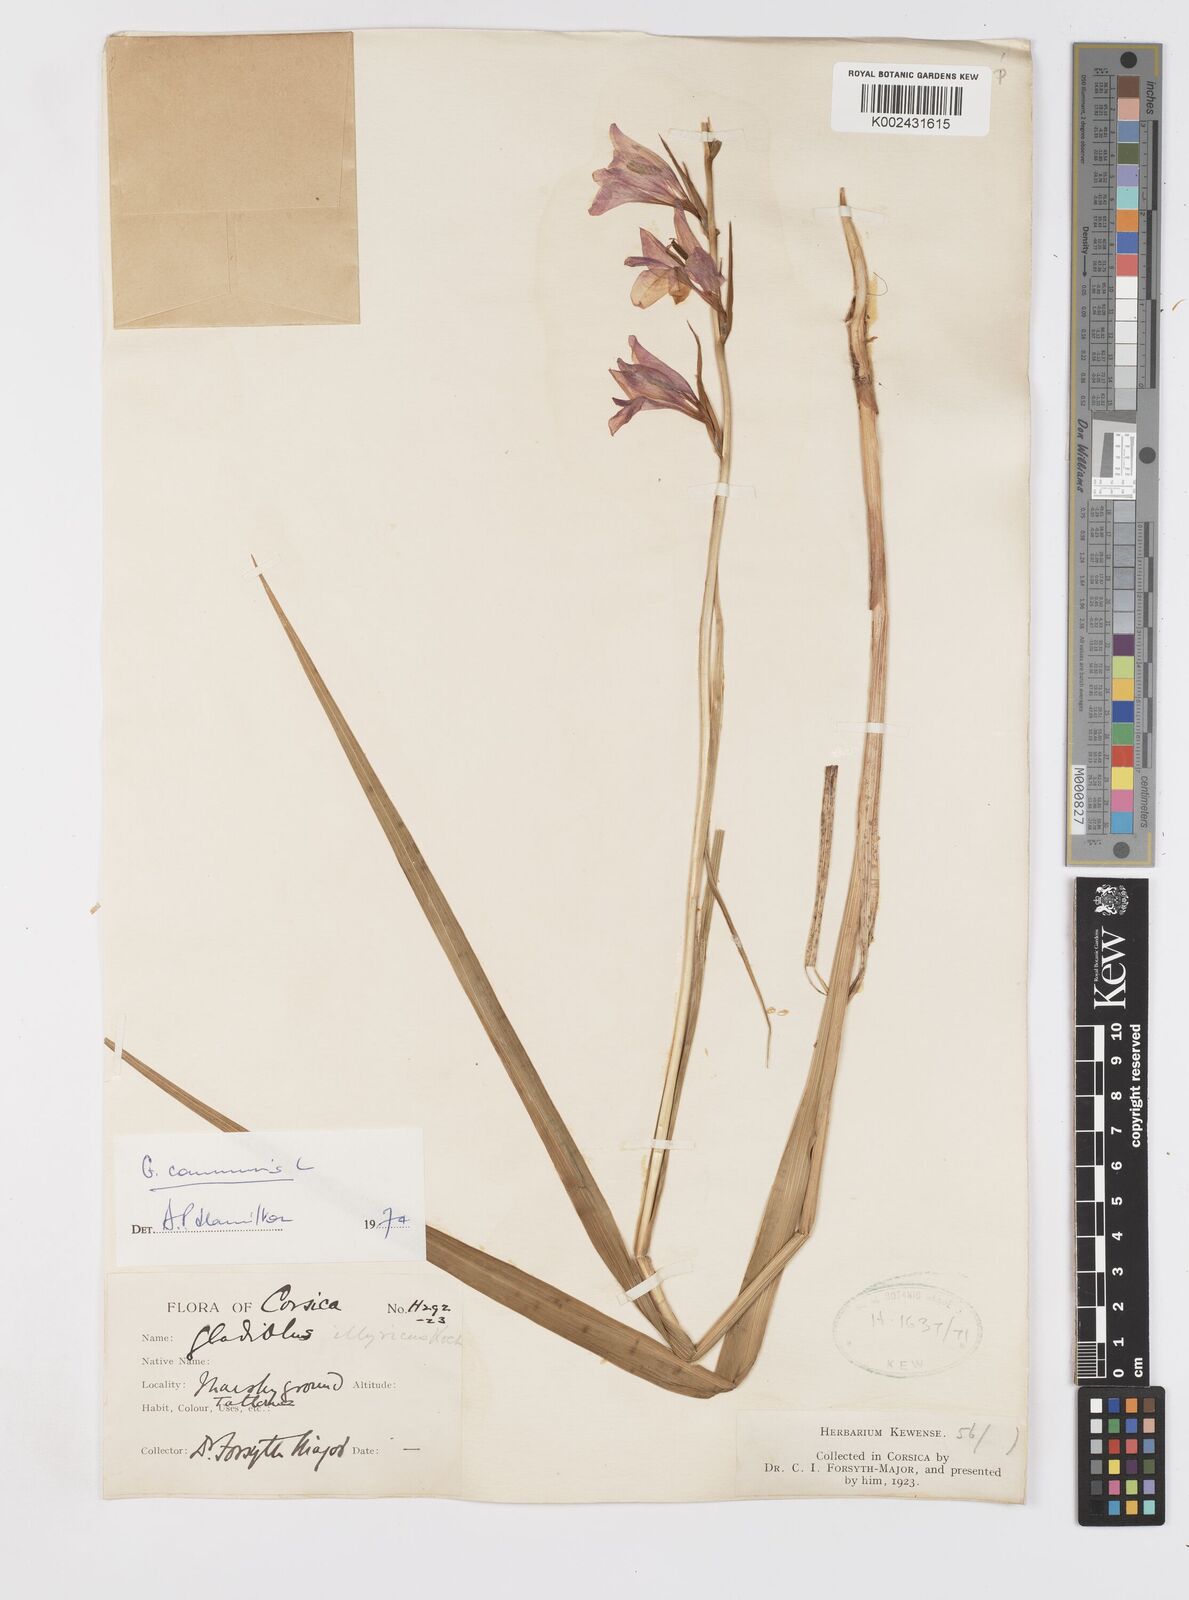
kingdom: Plantae
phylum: Tracheophyta
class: Liliopsida
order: Asparagales
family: Iridaceae
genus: Gladiolus
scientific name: Gladiolus communis
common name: Eastern gladiolus
